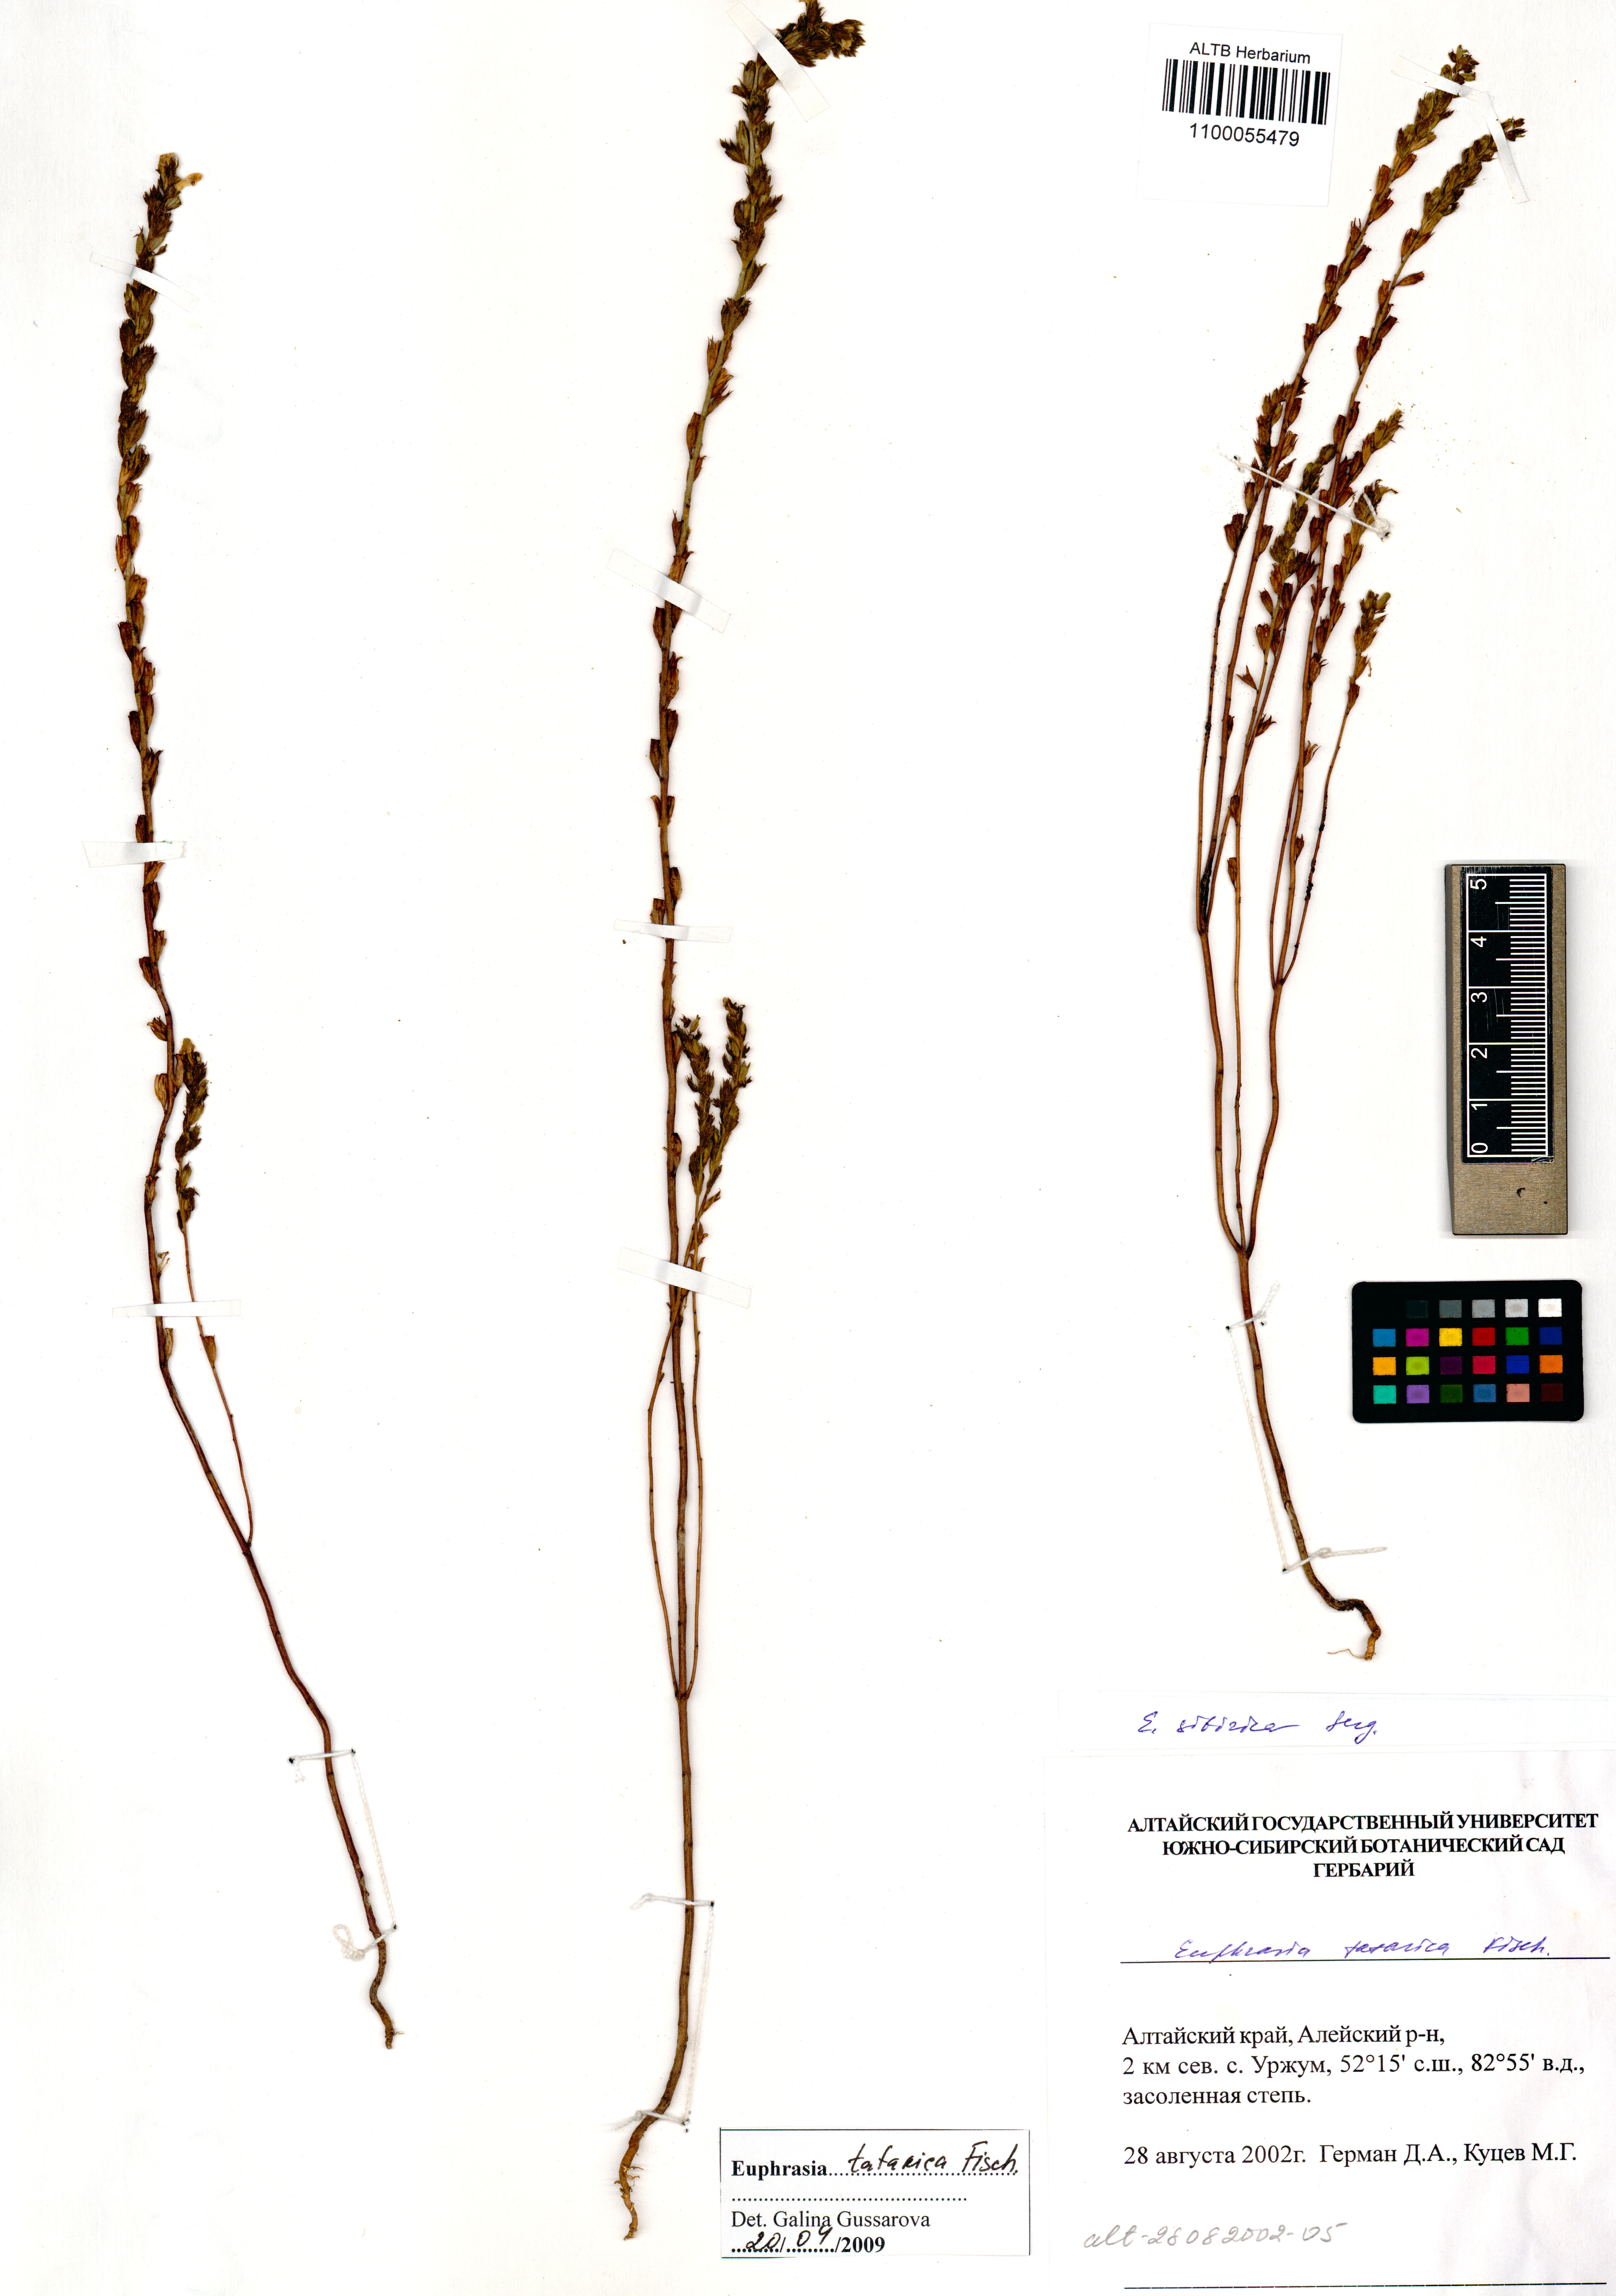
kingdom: Plantae
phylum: Tracheophyta
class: Magnoliopsida
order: Lamiales
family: Orobanchaceae
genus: Euphrasia
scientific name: Euphrasia pectinata
